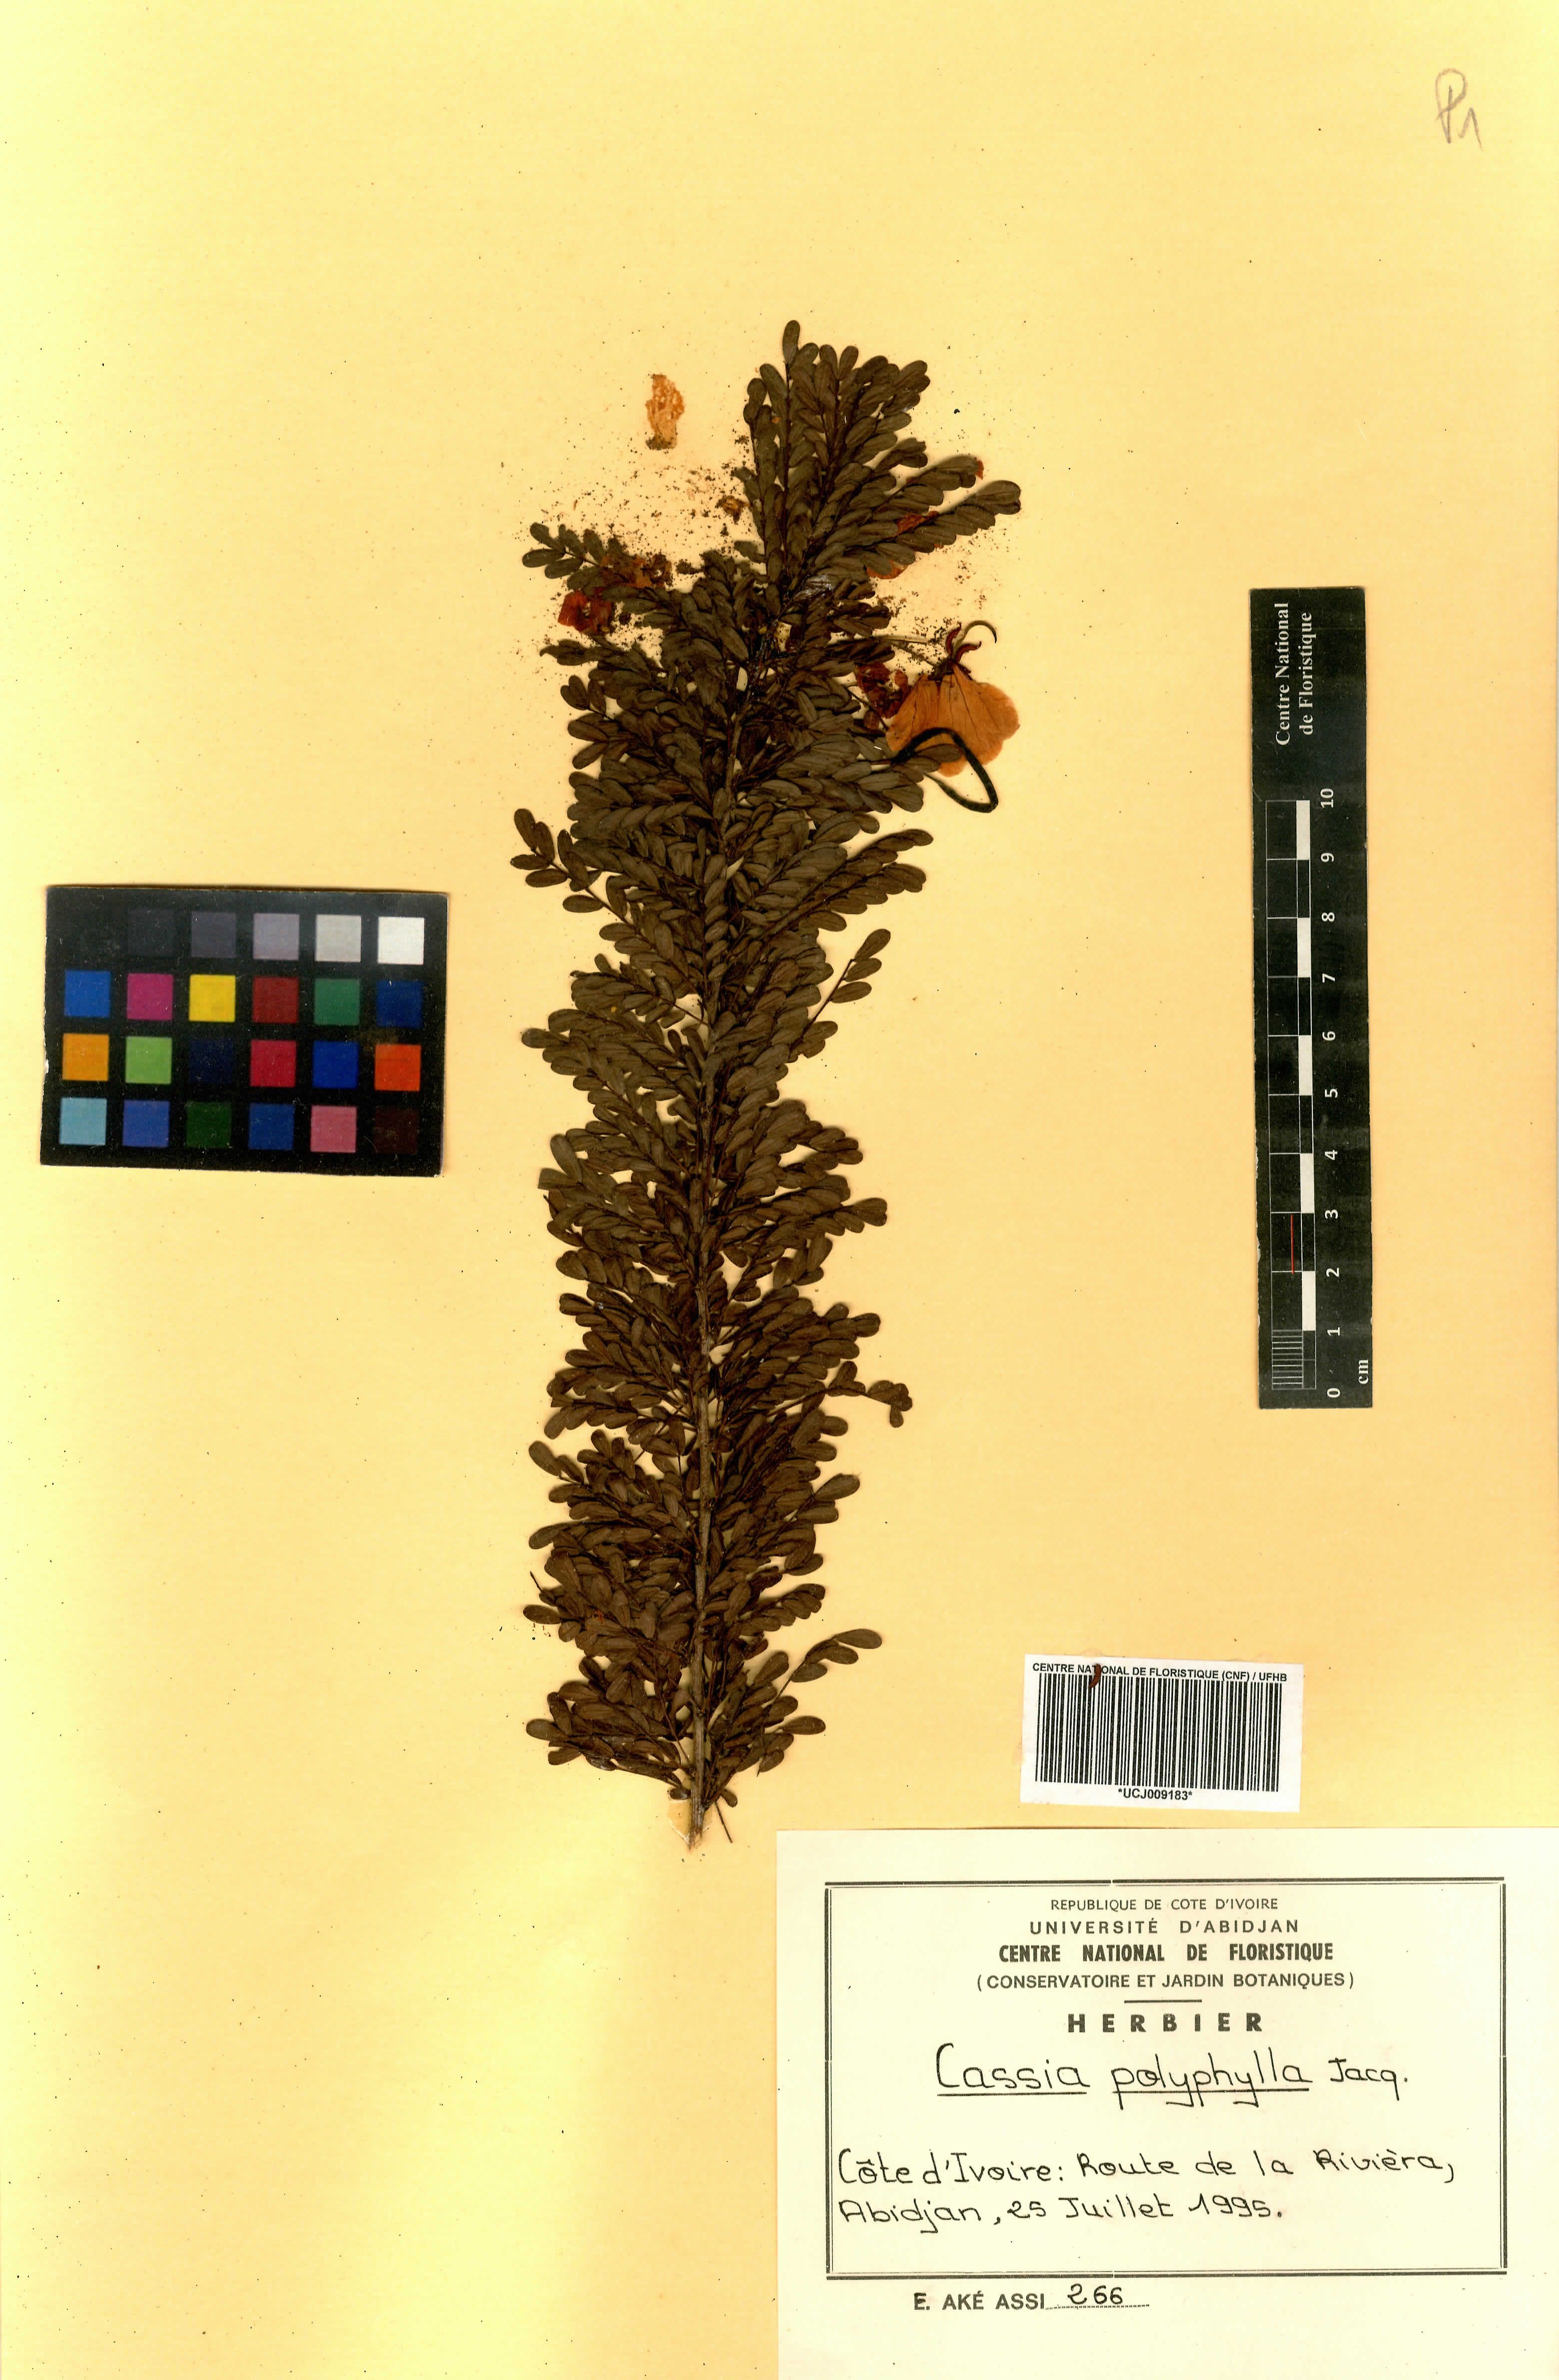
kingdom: Plantae
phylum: Tracheophyta
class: Magnoliopsida
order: Fabales
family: Fabaceae
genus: Senna
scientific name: Senna polyphylla
